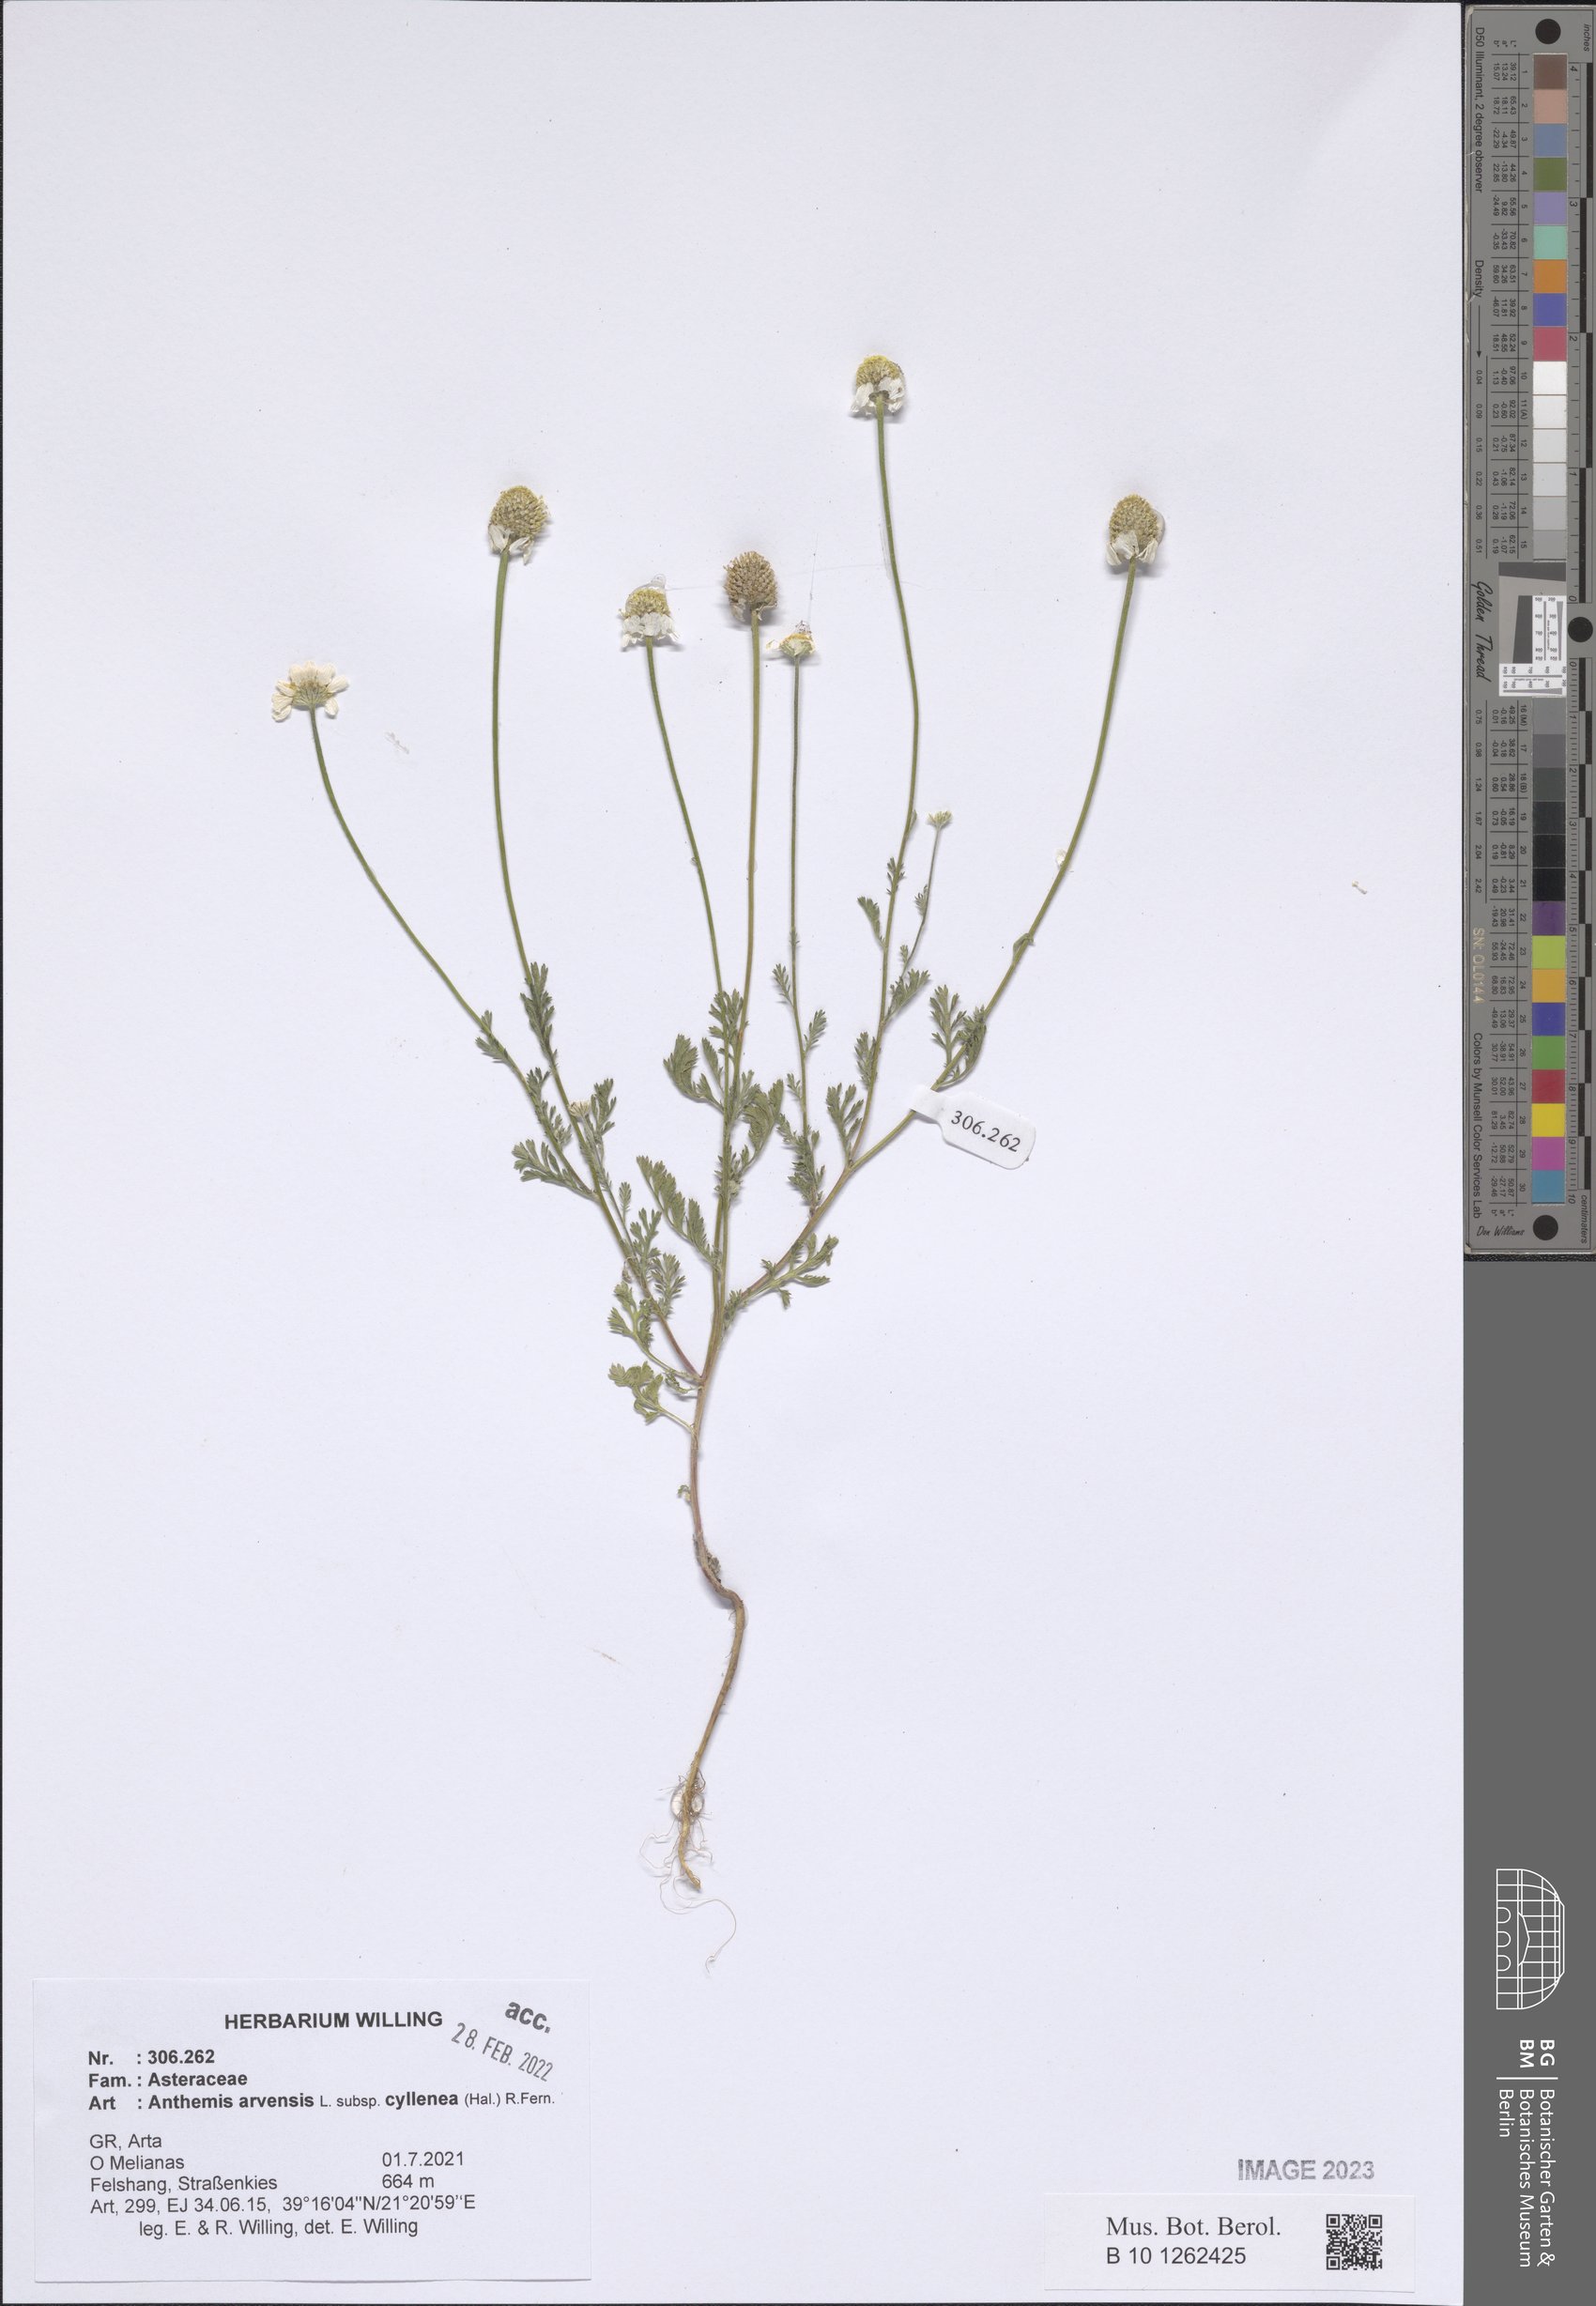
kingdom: Plantae
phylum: Tracheophyta
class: Magnoliopsida
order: Asterales
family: Asteraceae
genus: Anthemis
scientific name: Anthemis arvensis
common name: Corn chamomile
